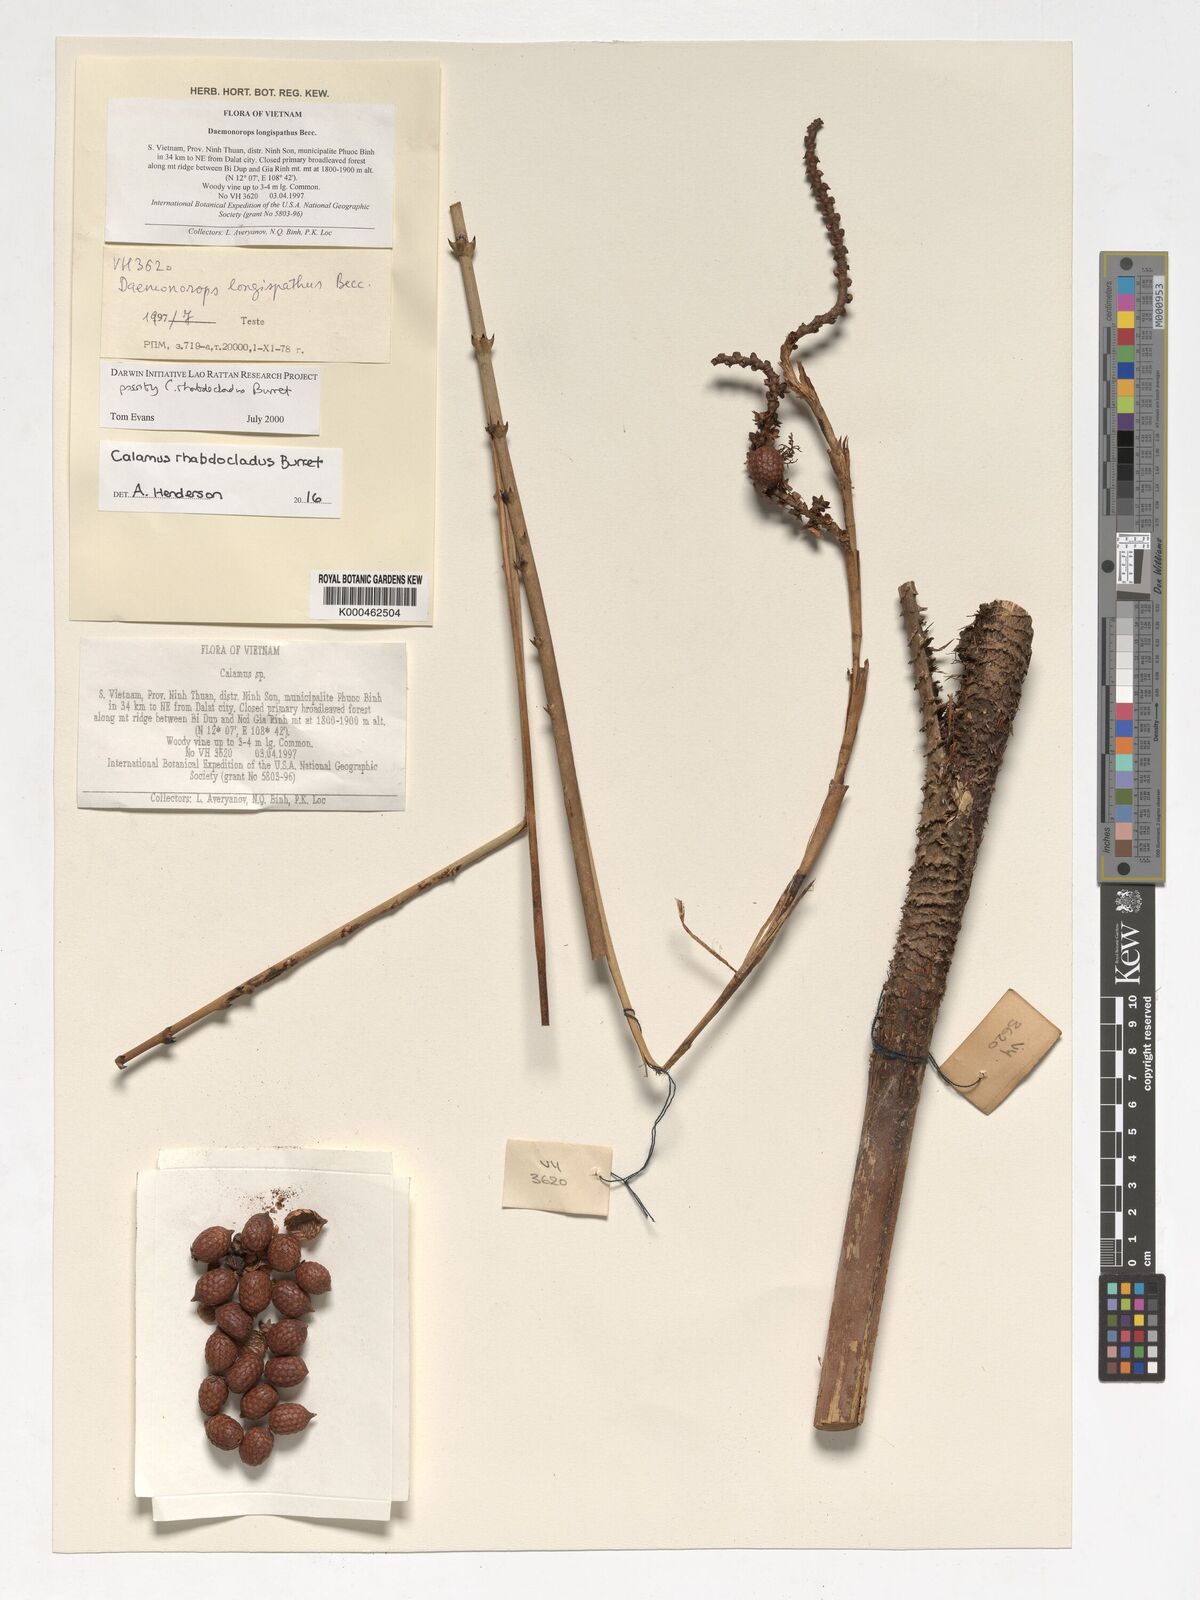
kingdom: Plantae
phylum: Tracheophyta
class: Liliopsida
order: Arecales
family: Arecaceae
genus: Calamus
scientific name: Calamus rhabdocladus
